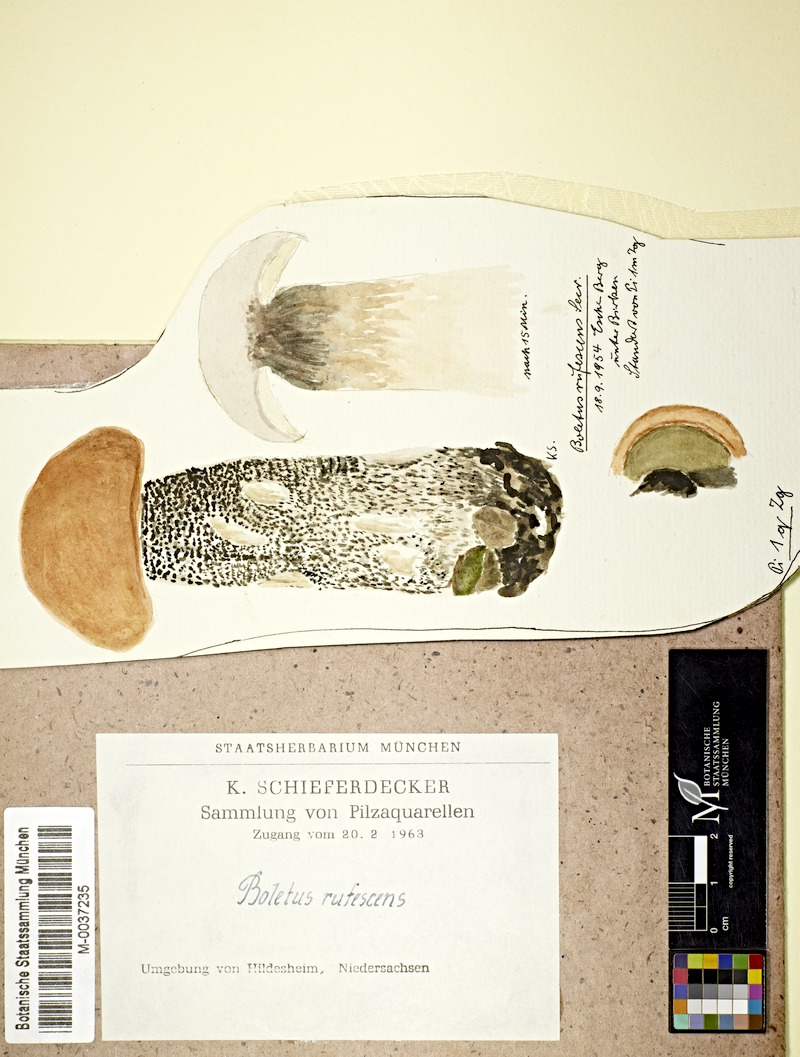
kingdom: Fungi
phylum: Basidiomycota
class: Agaricomycetes
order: Boletales
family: Boletaceae
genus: Leccinum
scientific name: Leccinum versipelle
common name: Orange birch bolete
